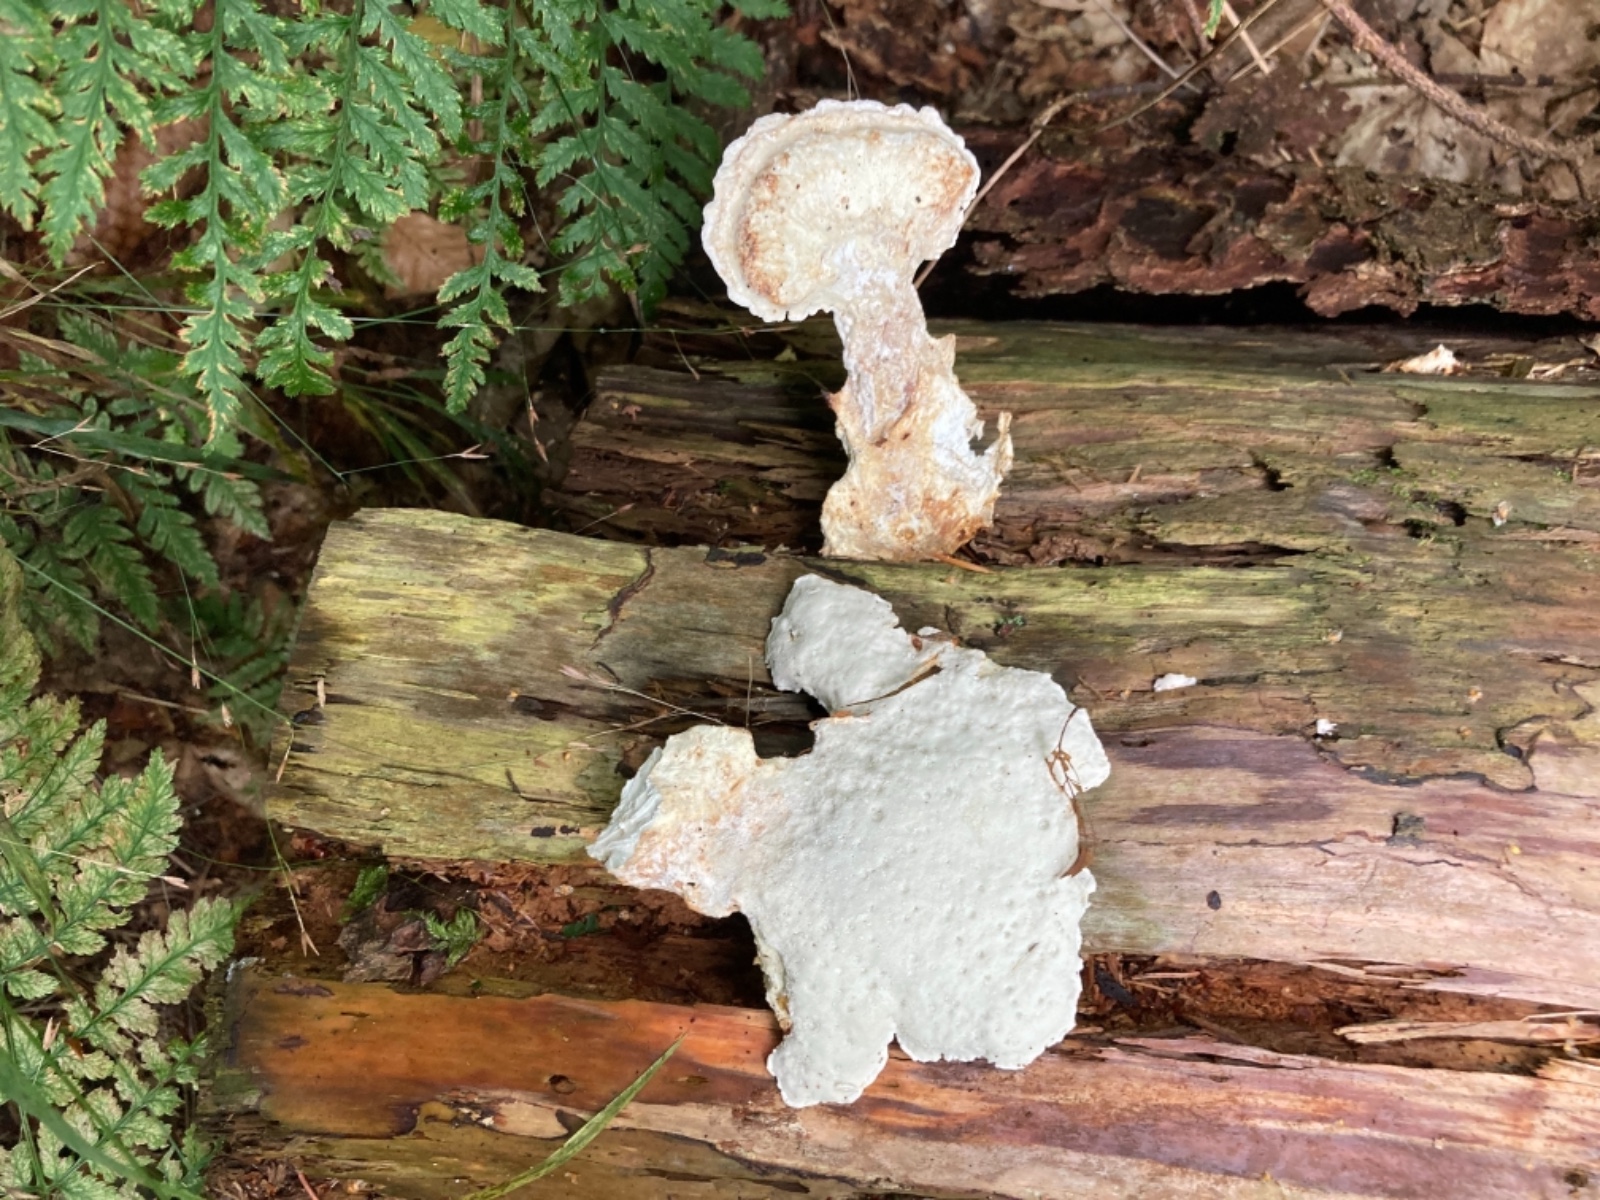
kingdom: Fungi
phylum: Basidiomycota
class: Agaricomycetes
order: Polyporales
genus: Calcipostia
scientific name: Calcipostia guttulata
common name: dråbe-kødporesvamp
